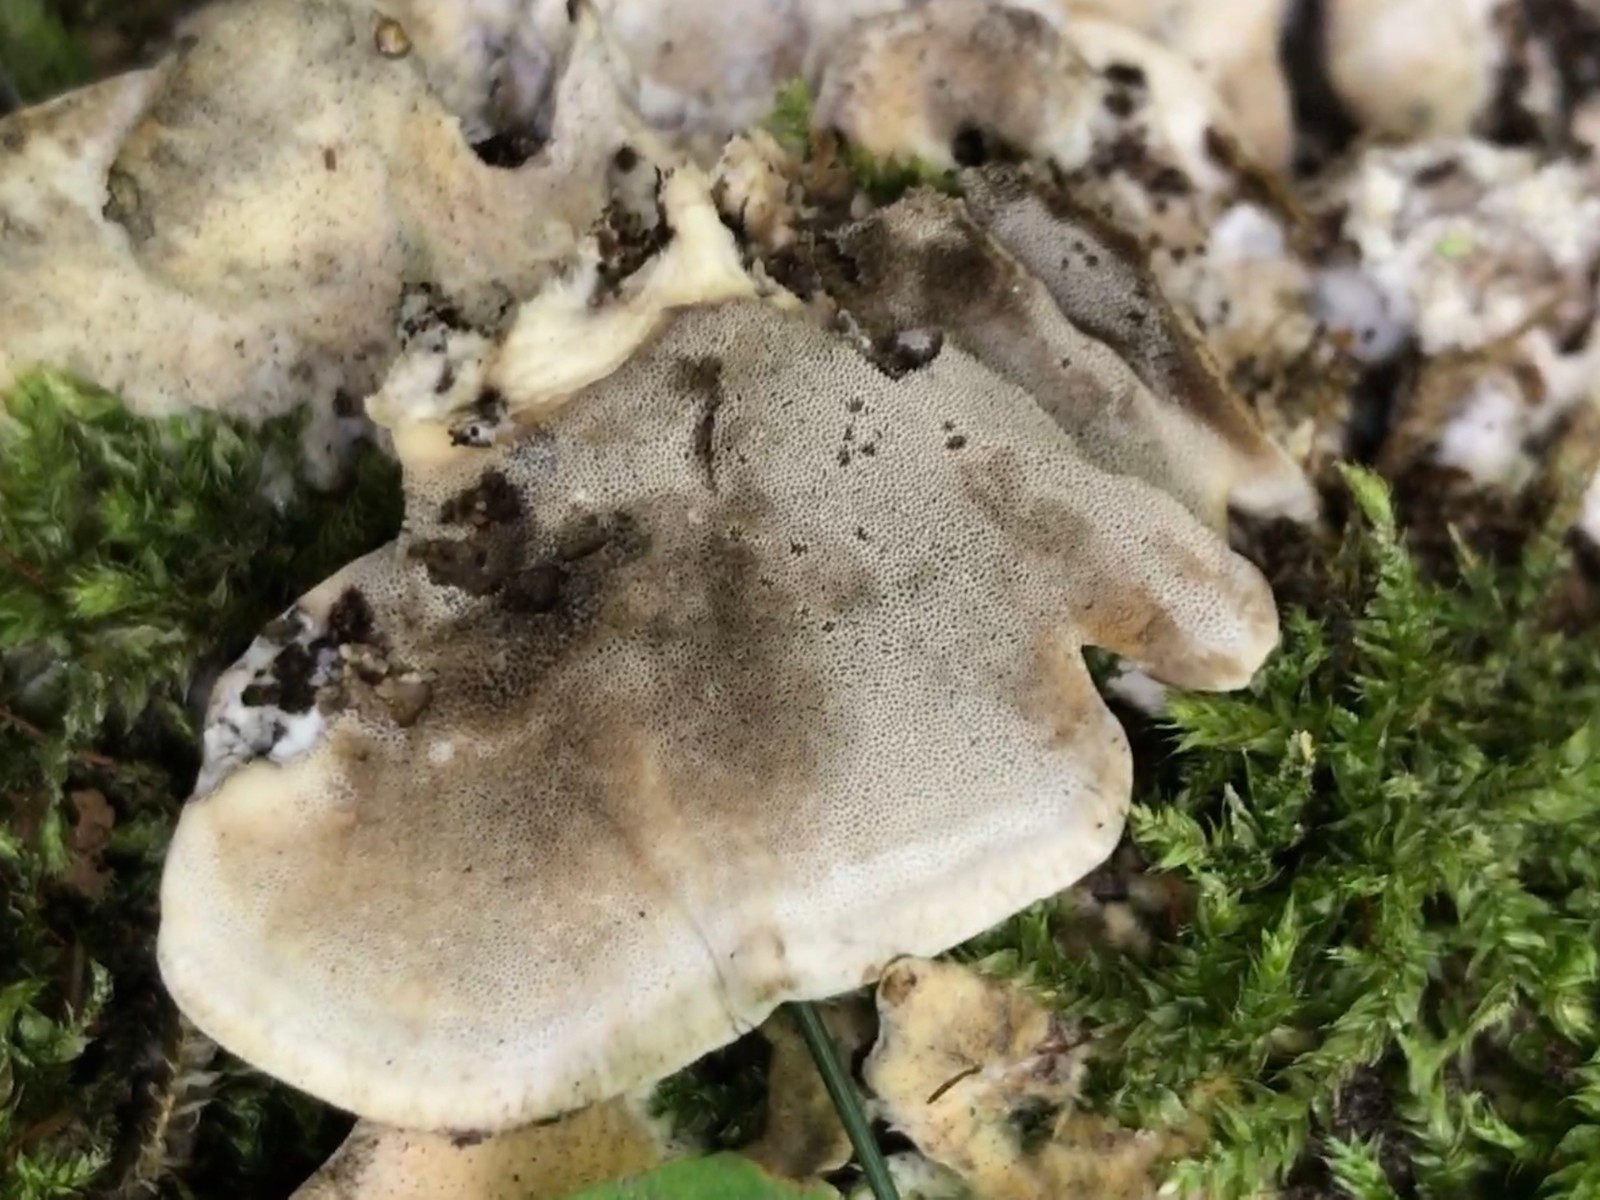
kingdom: Fungi
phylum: Basidiomycota
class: Agaricomycetes
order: Polyporales
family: Phanerochaetaceae
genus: Bjerkandera
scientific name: Bjerkandera adusta
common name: sveden sodporesvamp
